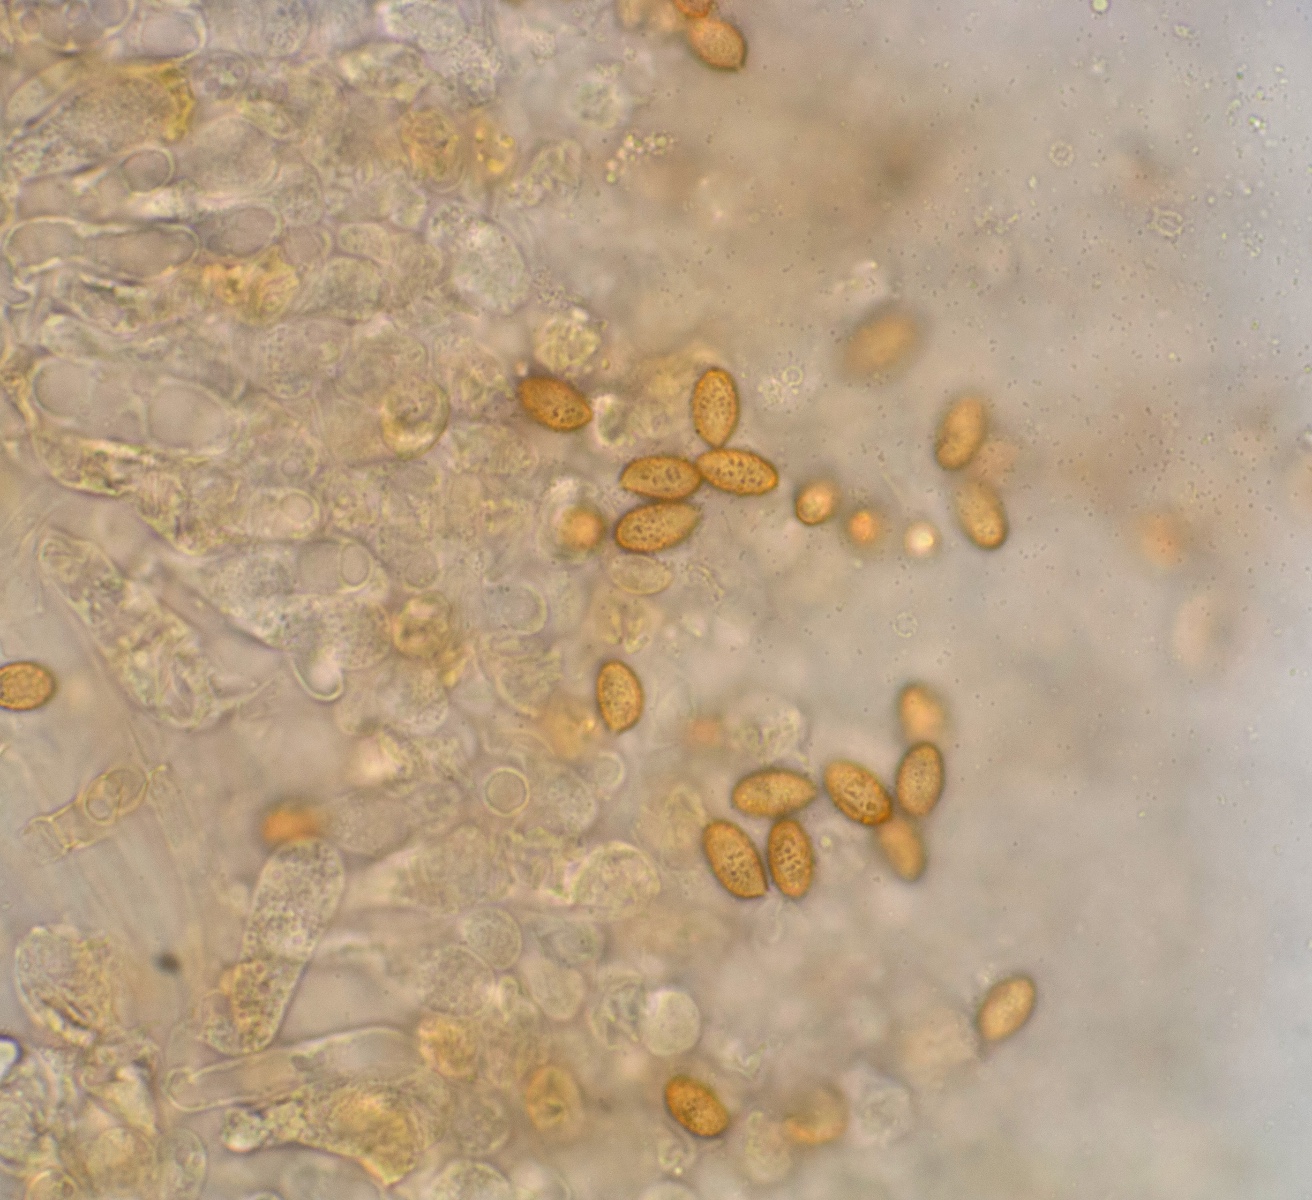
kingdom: Fungi
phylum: Basidiomycota
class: Agaricomycetes
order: Agaricales
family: Cortinariaceae
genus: Cortinarius
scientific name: Cortinarius
